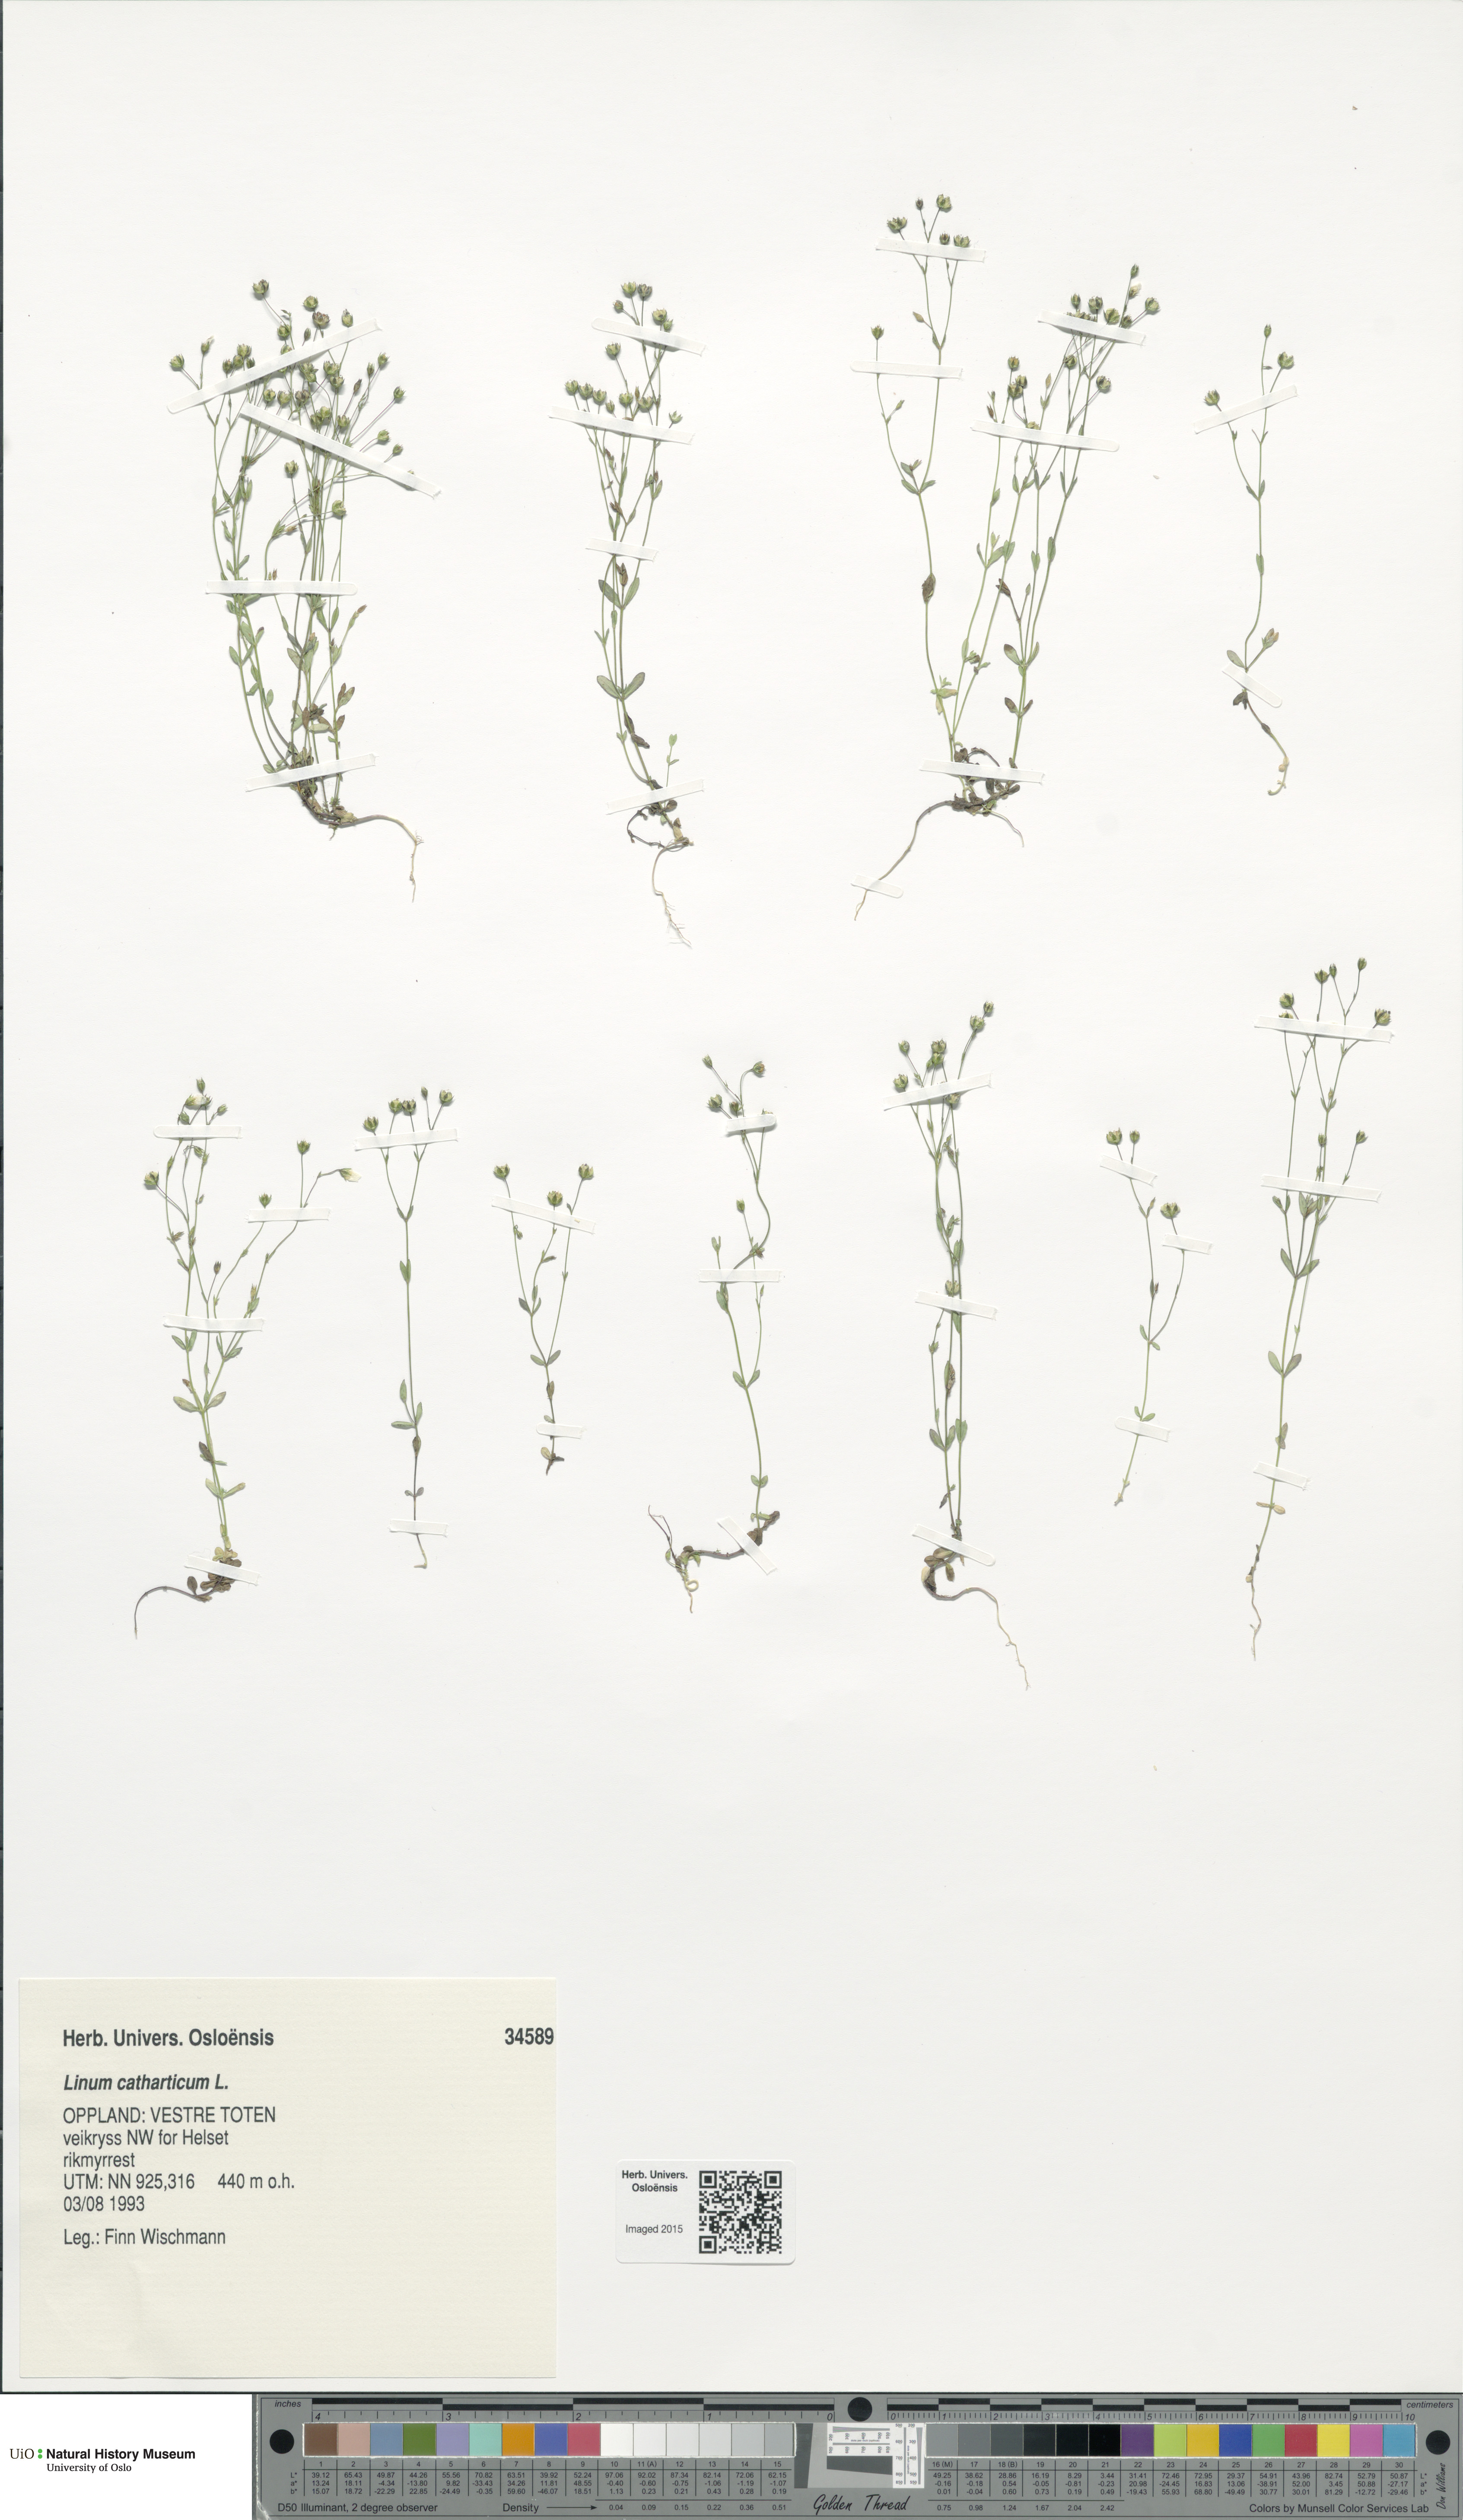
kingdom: Plantae
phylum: Tracheophyta
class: Magnoliopsida
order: Malpighiales
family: Linaceae
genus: Linum
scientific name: Linum catharticum
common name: Fairy flax
